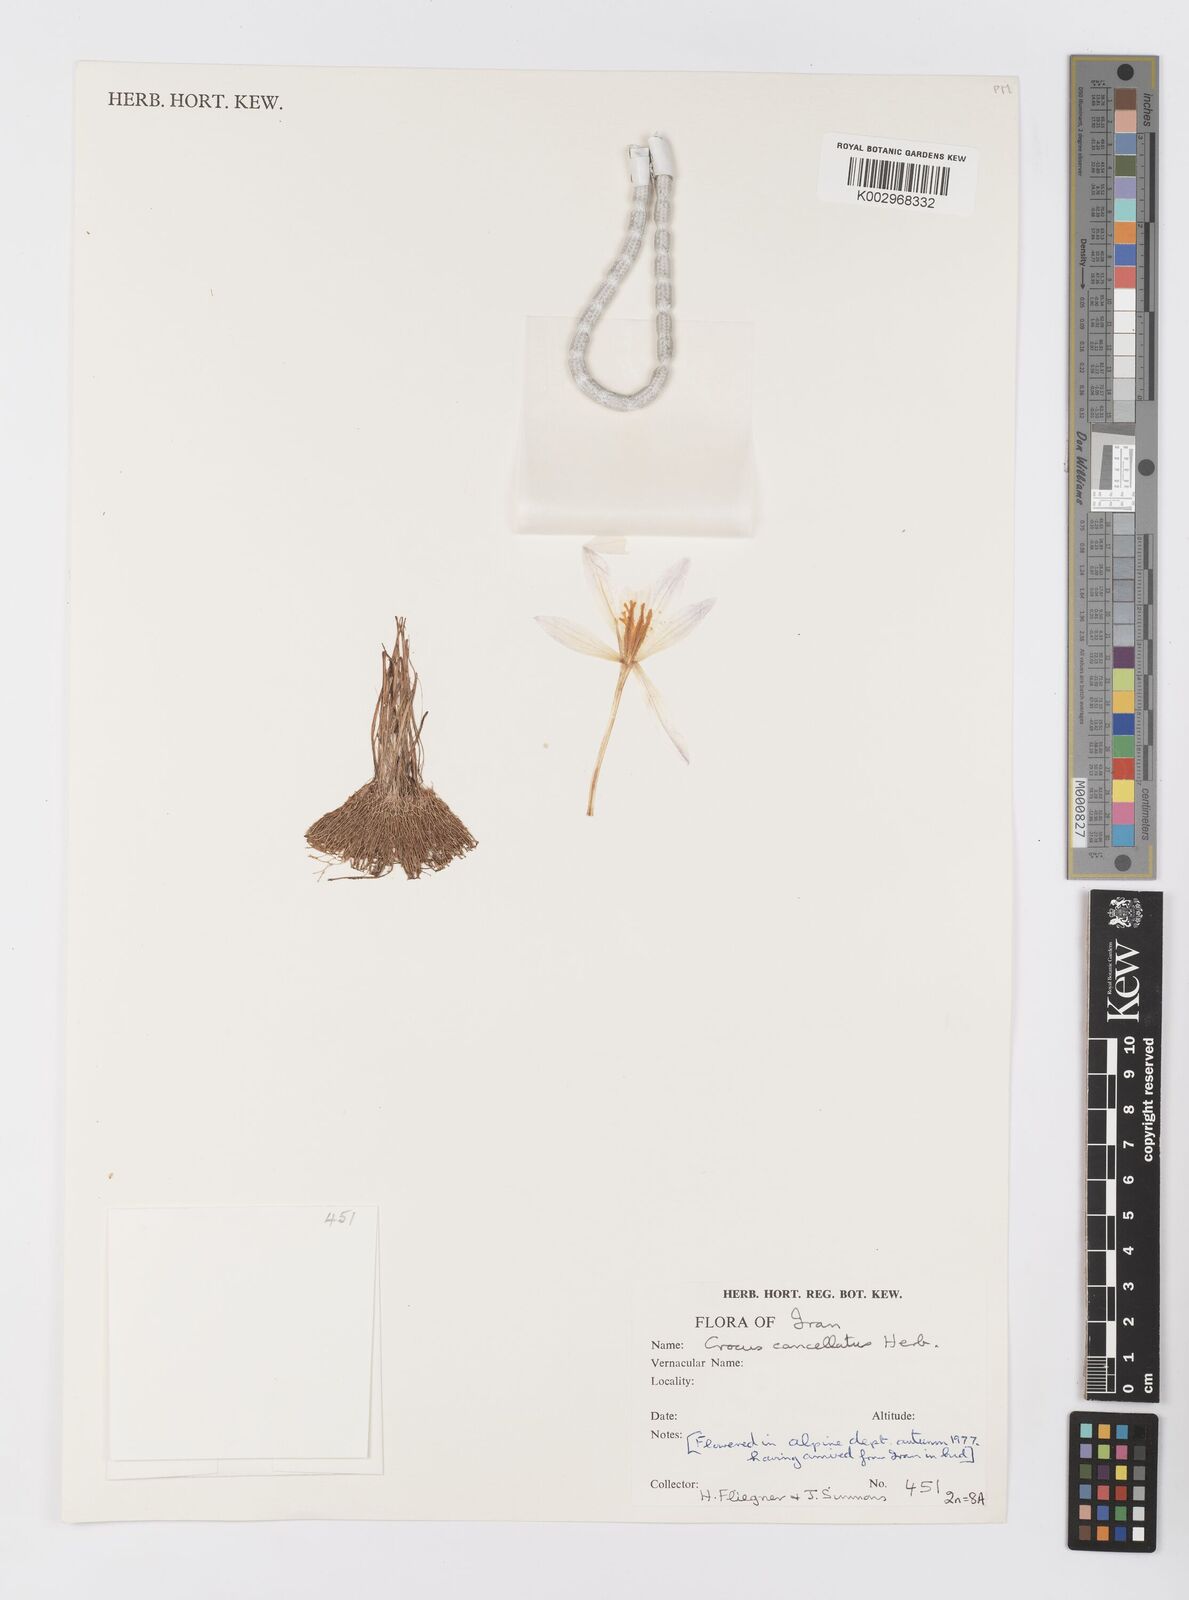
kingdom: Plantae
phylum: Tracheophyta
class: Liliopsida
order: Asparagales
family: Iridaceae
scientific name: Iridaceae
